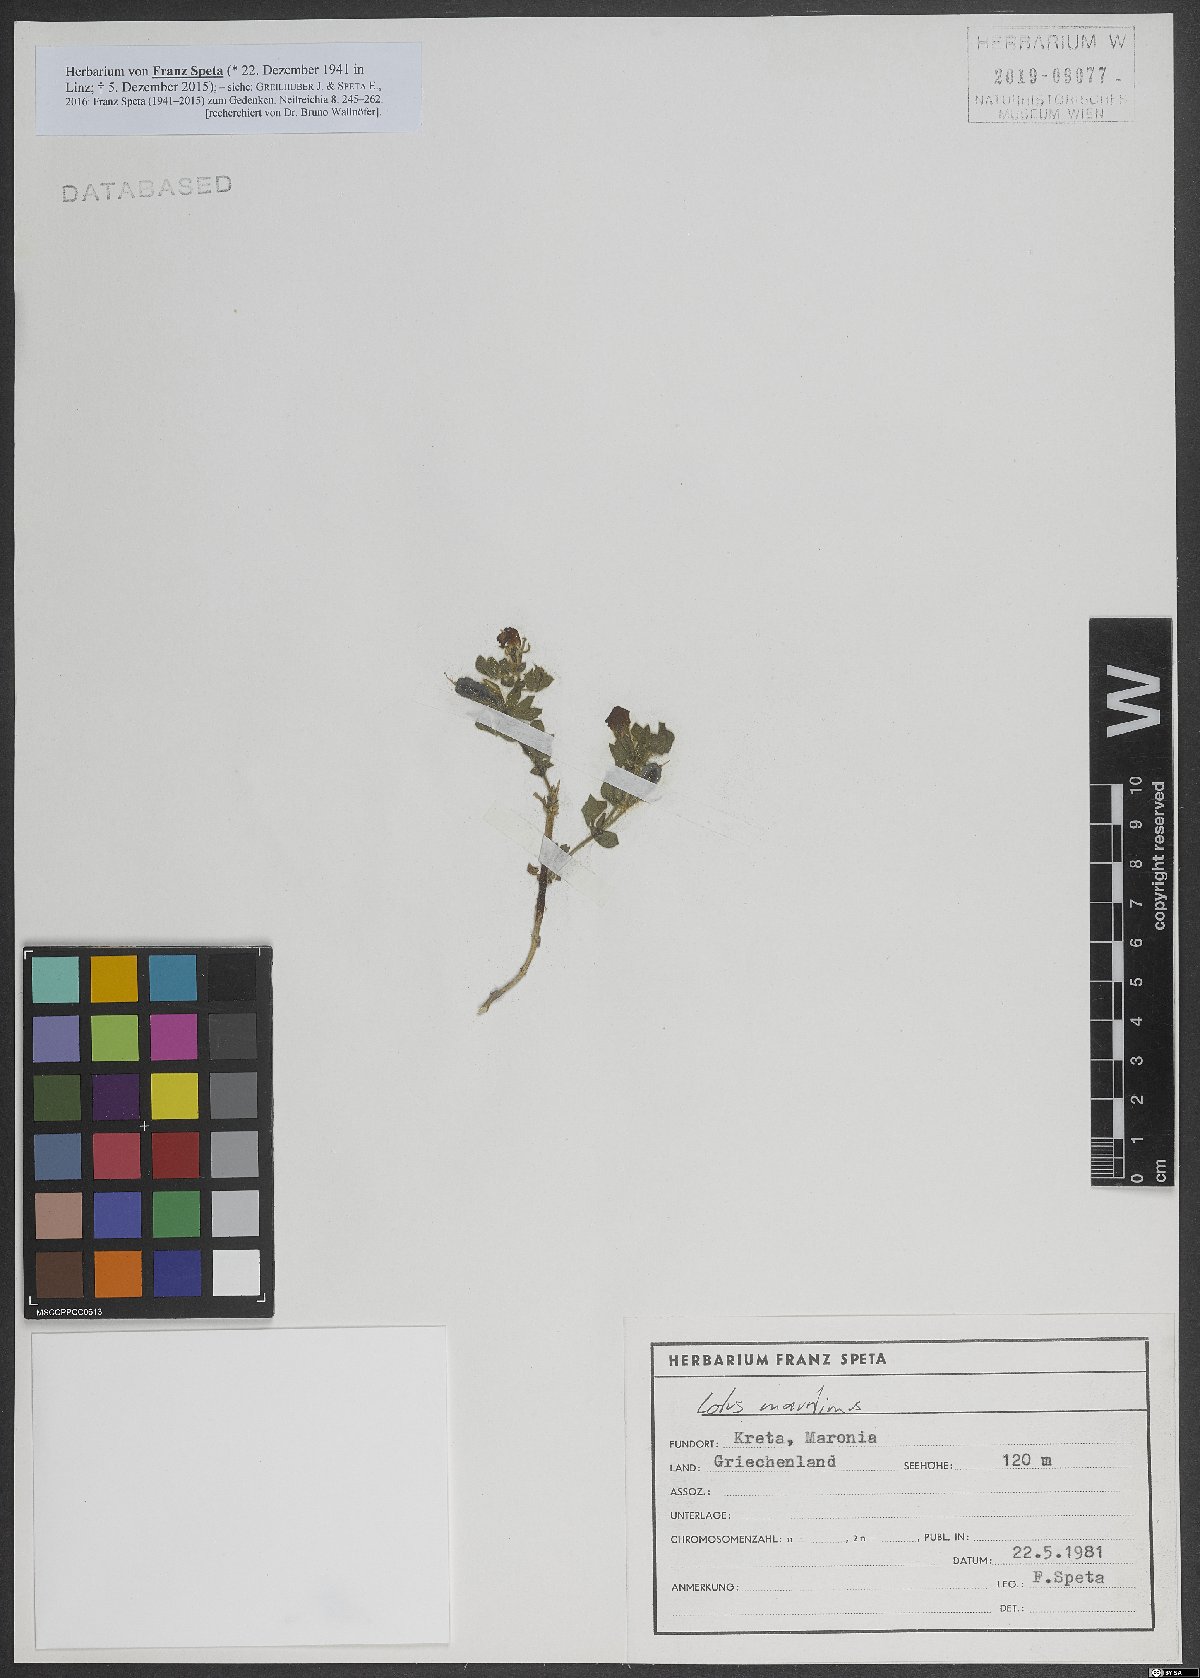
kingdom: Plantae
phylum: Tracheophyta
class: Magnoliopsida
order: Fabales
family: Fabaceae
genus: Lotus
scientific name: Lotus maritimus
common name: Dragon's-teeth
